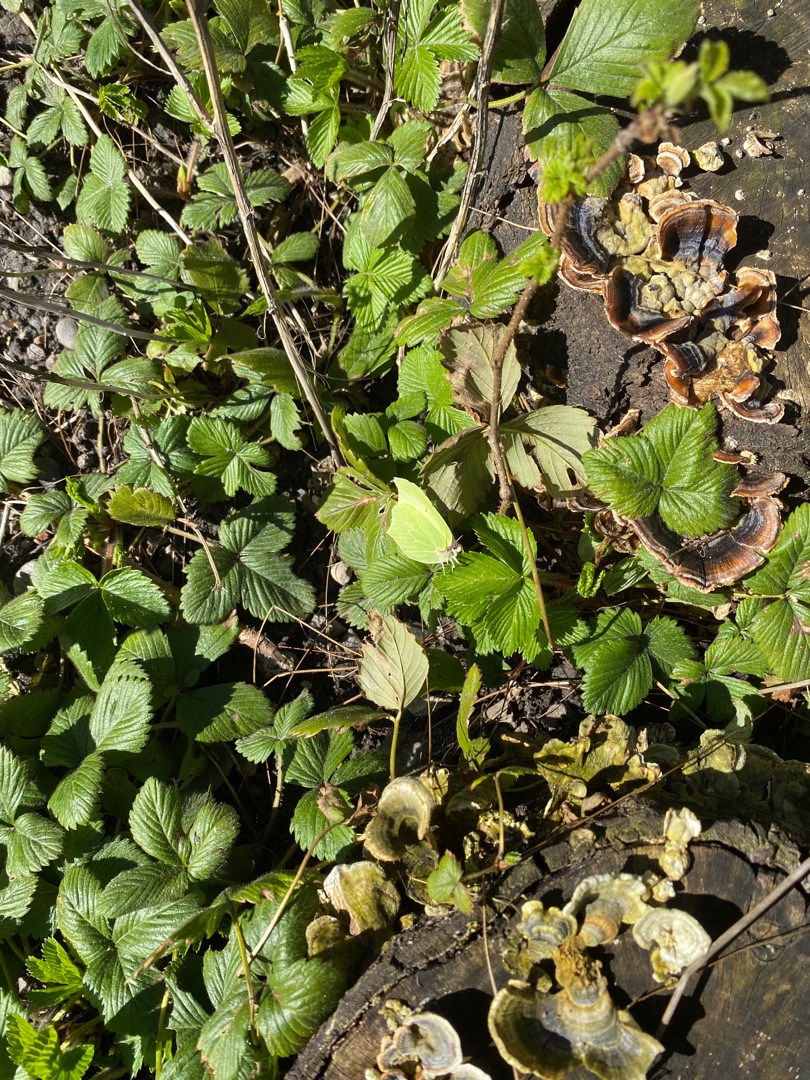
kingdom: Animalia
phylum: Arthropoda
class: Insecta
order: Lepidoptera
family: Pieridae
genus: Gonepteryx
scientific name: Gonepteryx rhamni
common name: Citronsommerfugl
